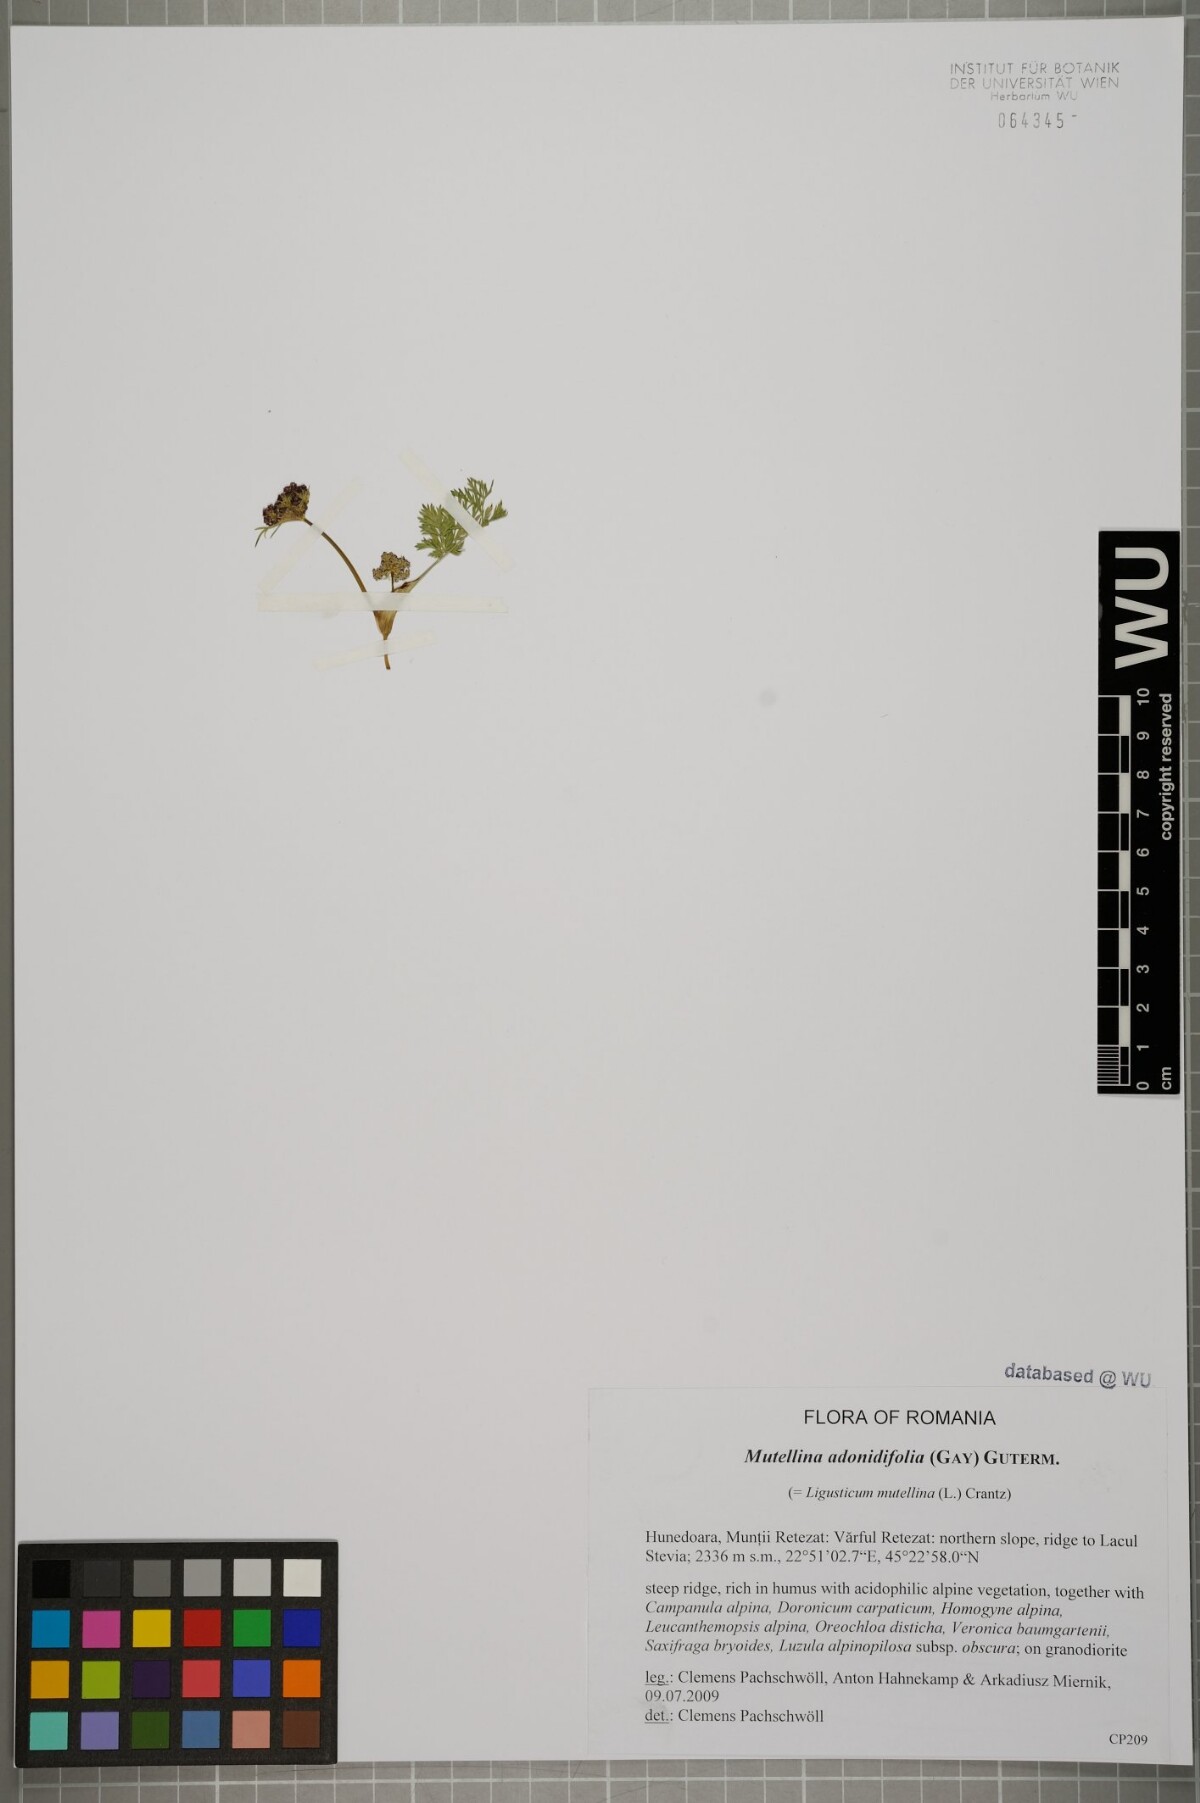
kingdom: Plantae
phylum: Tracheophyta
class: Magnoliopsida
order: Apiales
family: Apiaceae
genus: Mutellina
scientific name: Mutellina adonidifolia
